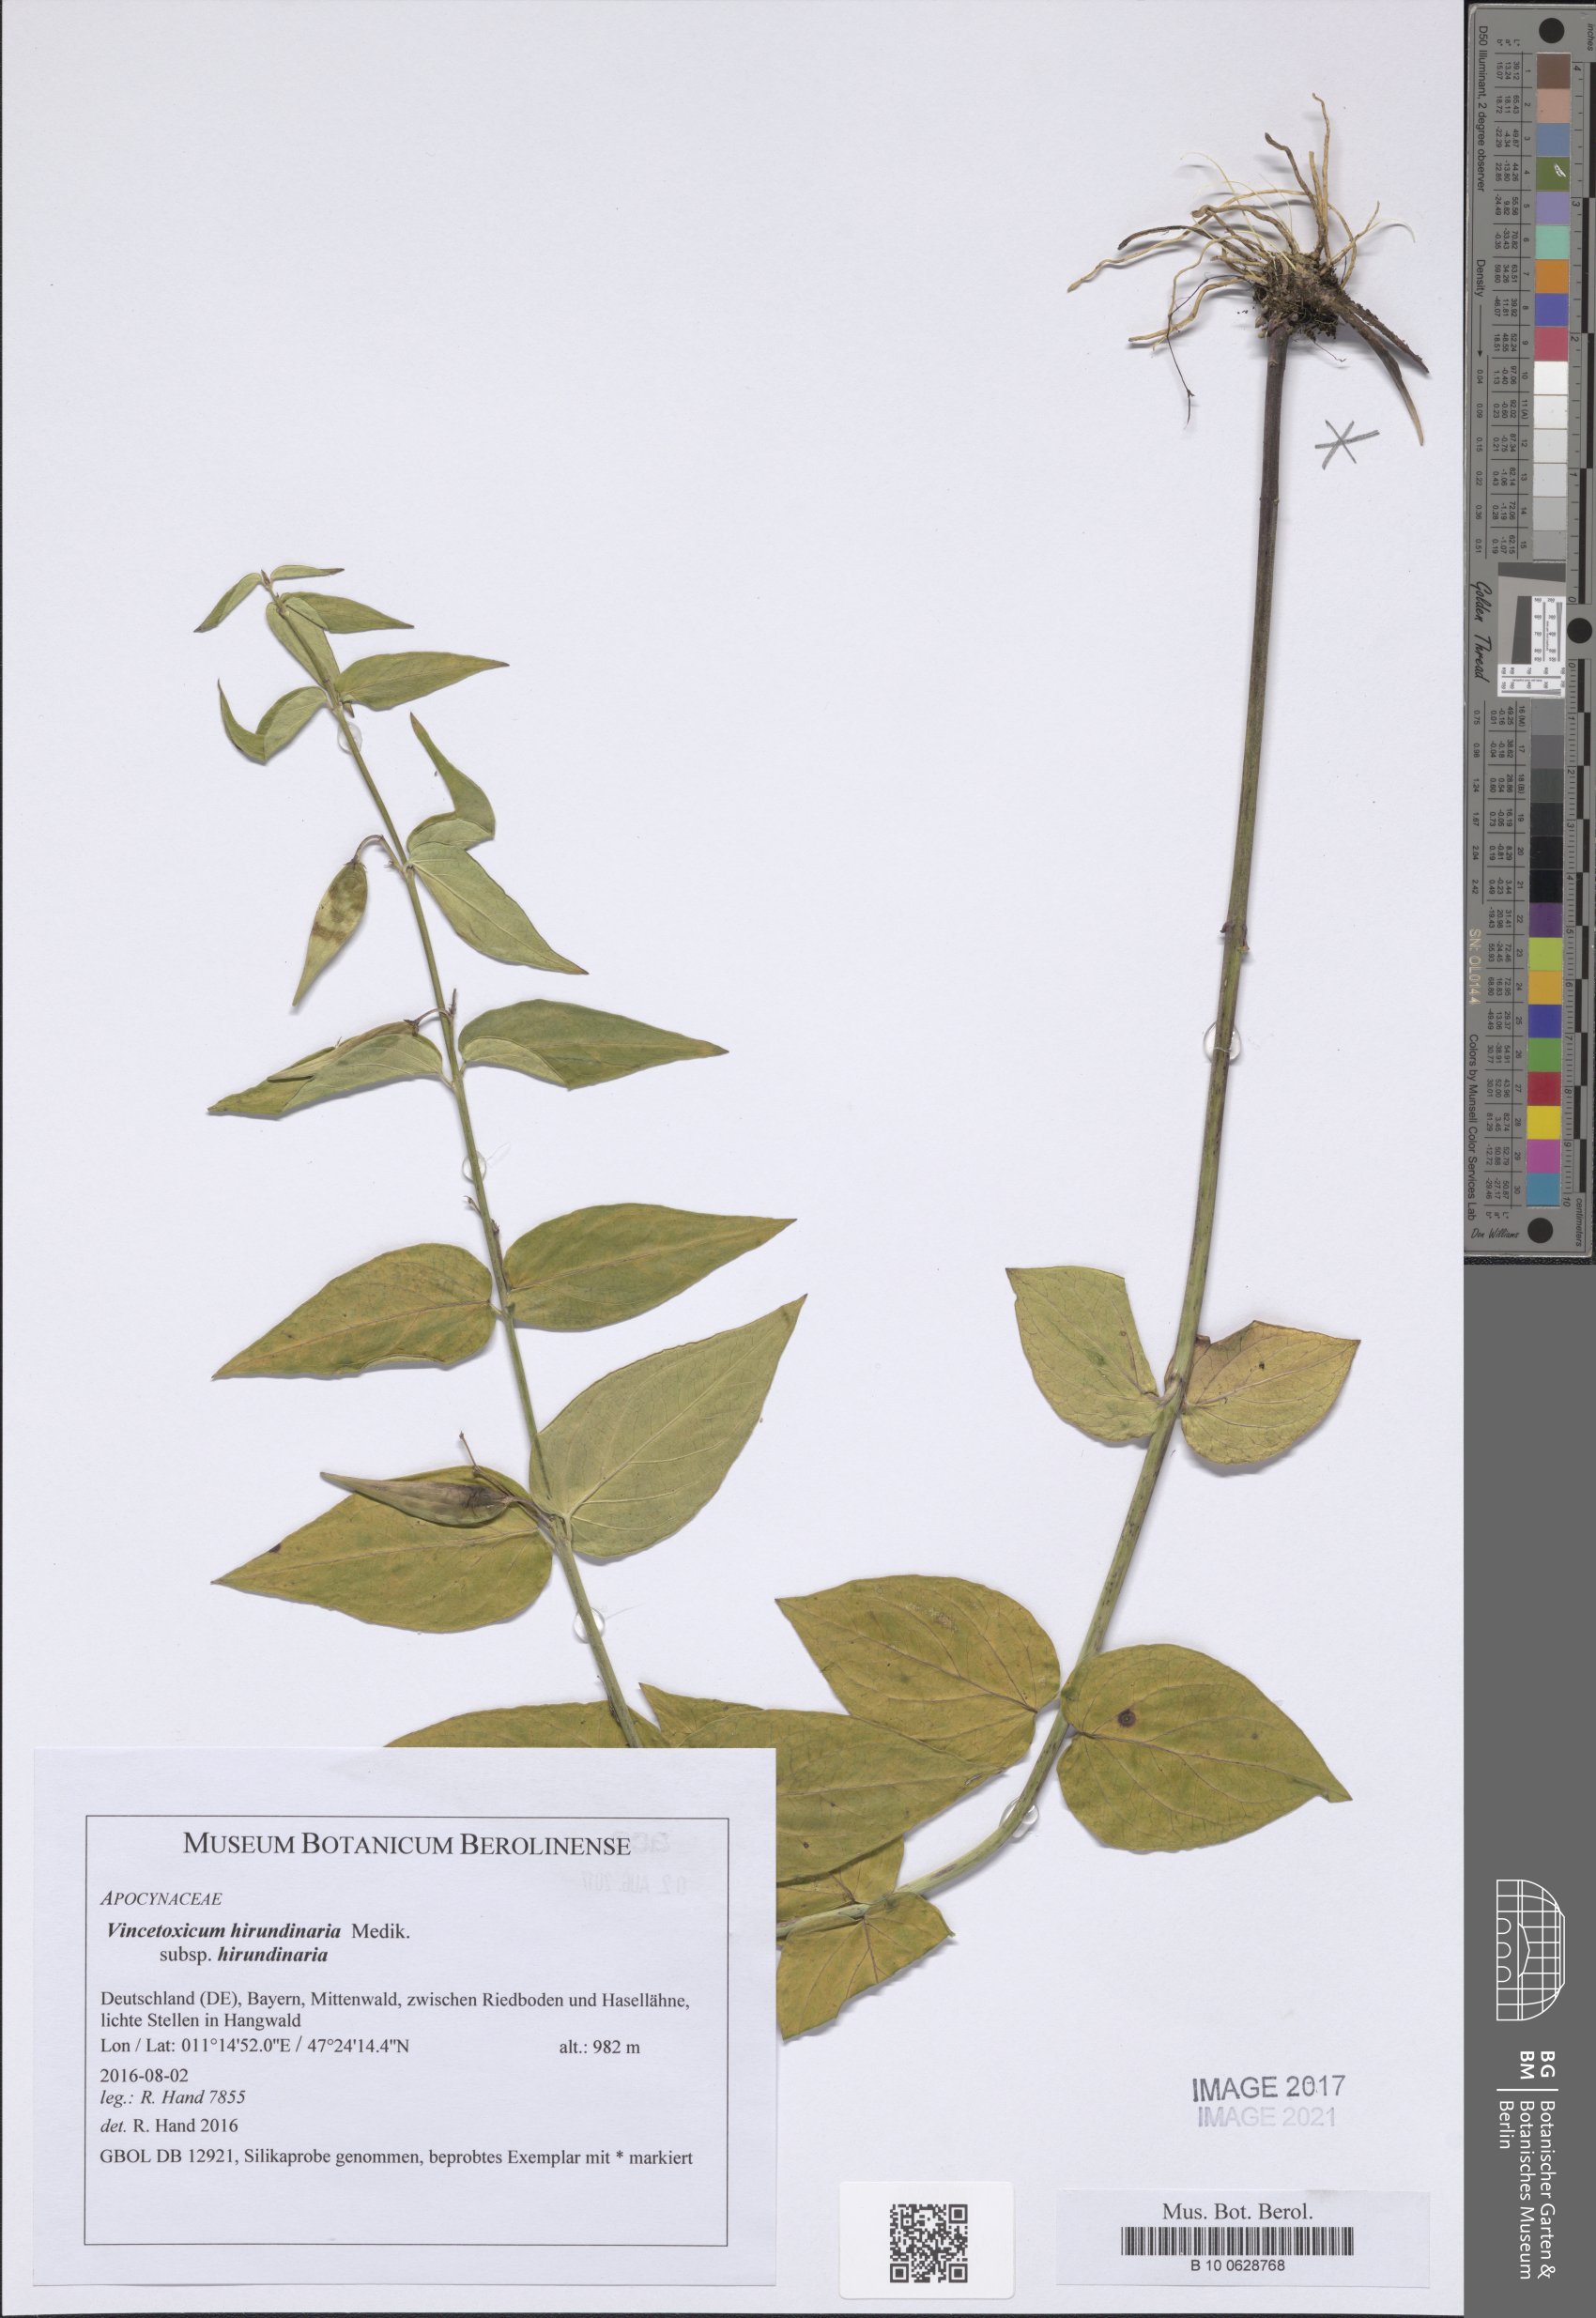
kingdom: Plantae
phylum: Tracheophyta
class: Magnoliopsida
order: Gentianales
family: Apocynaceae
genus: Vincetoxicum
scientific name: Vincetoxicum hirundinaria
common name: White swallowwort
